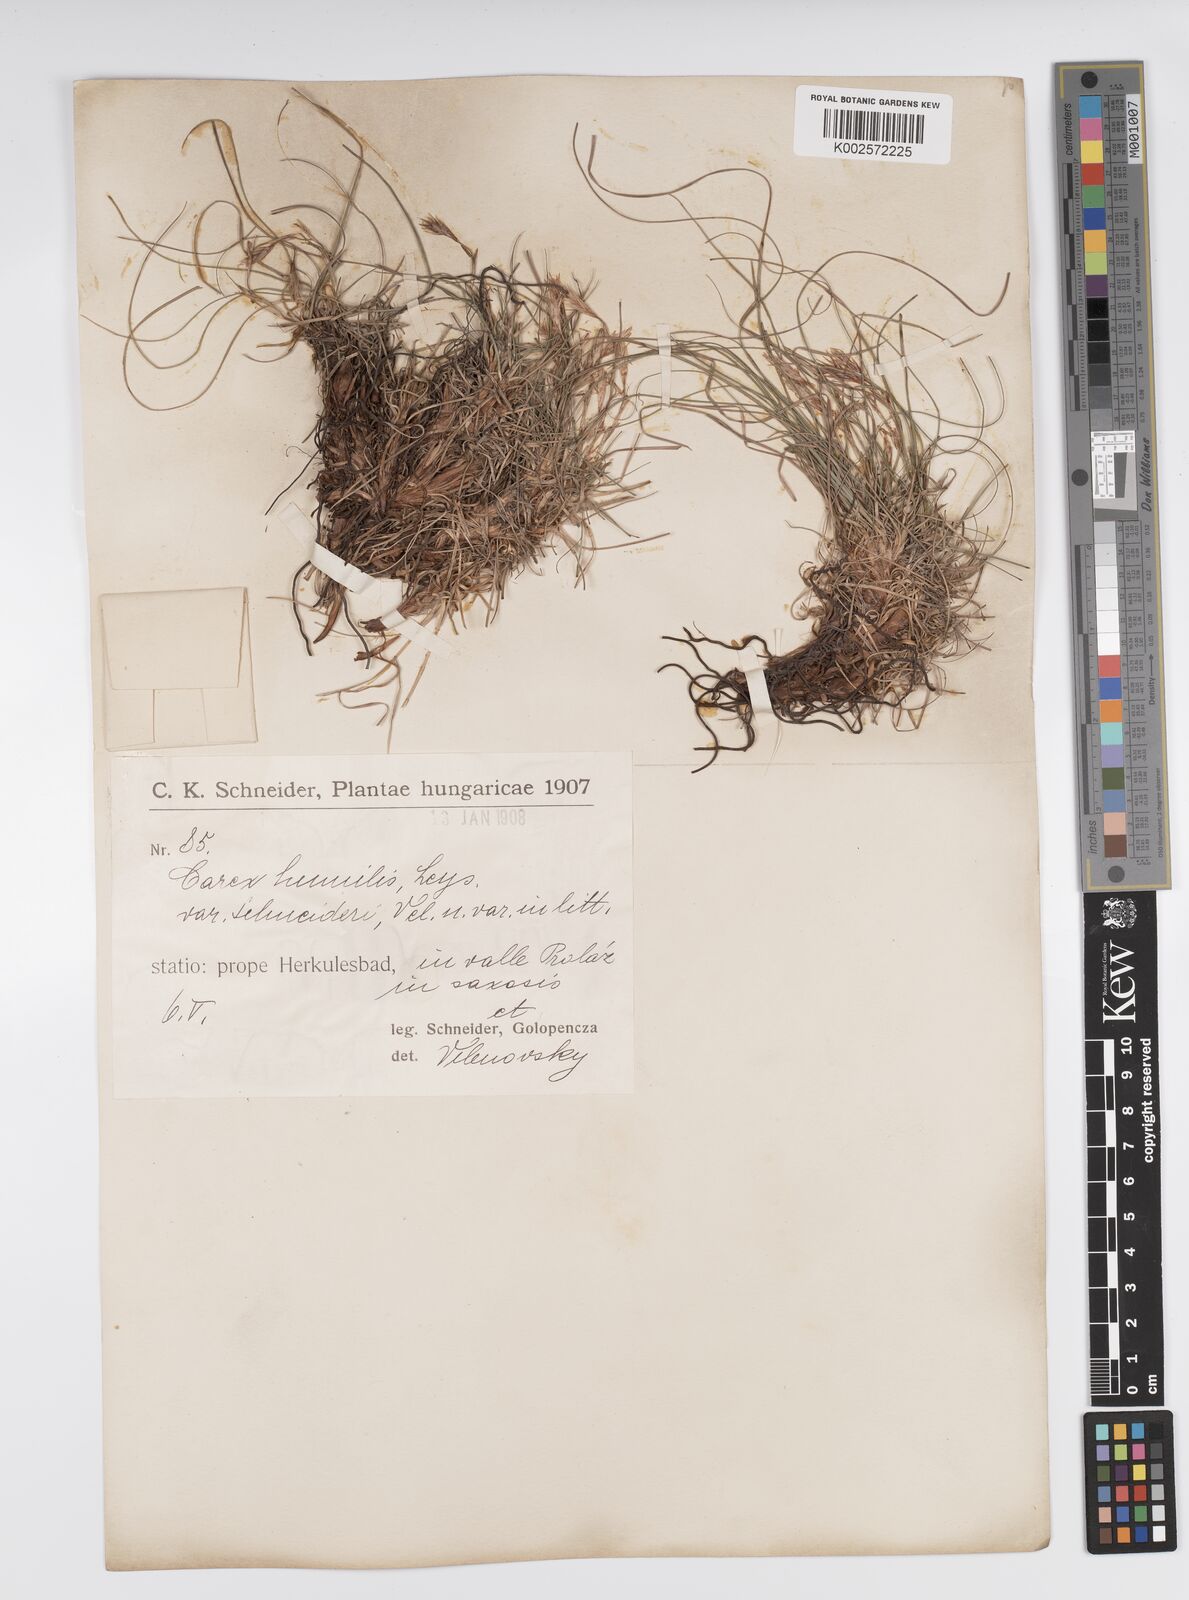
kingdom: Plantae
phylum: Tracheophyta
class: Liliopsida
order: Poales
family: Cyperaceae
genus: Carex
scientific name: Carex humilis
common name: Dwarf sedge
